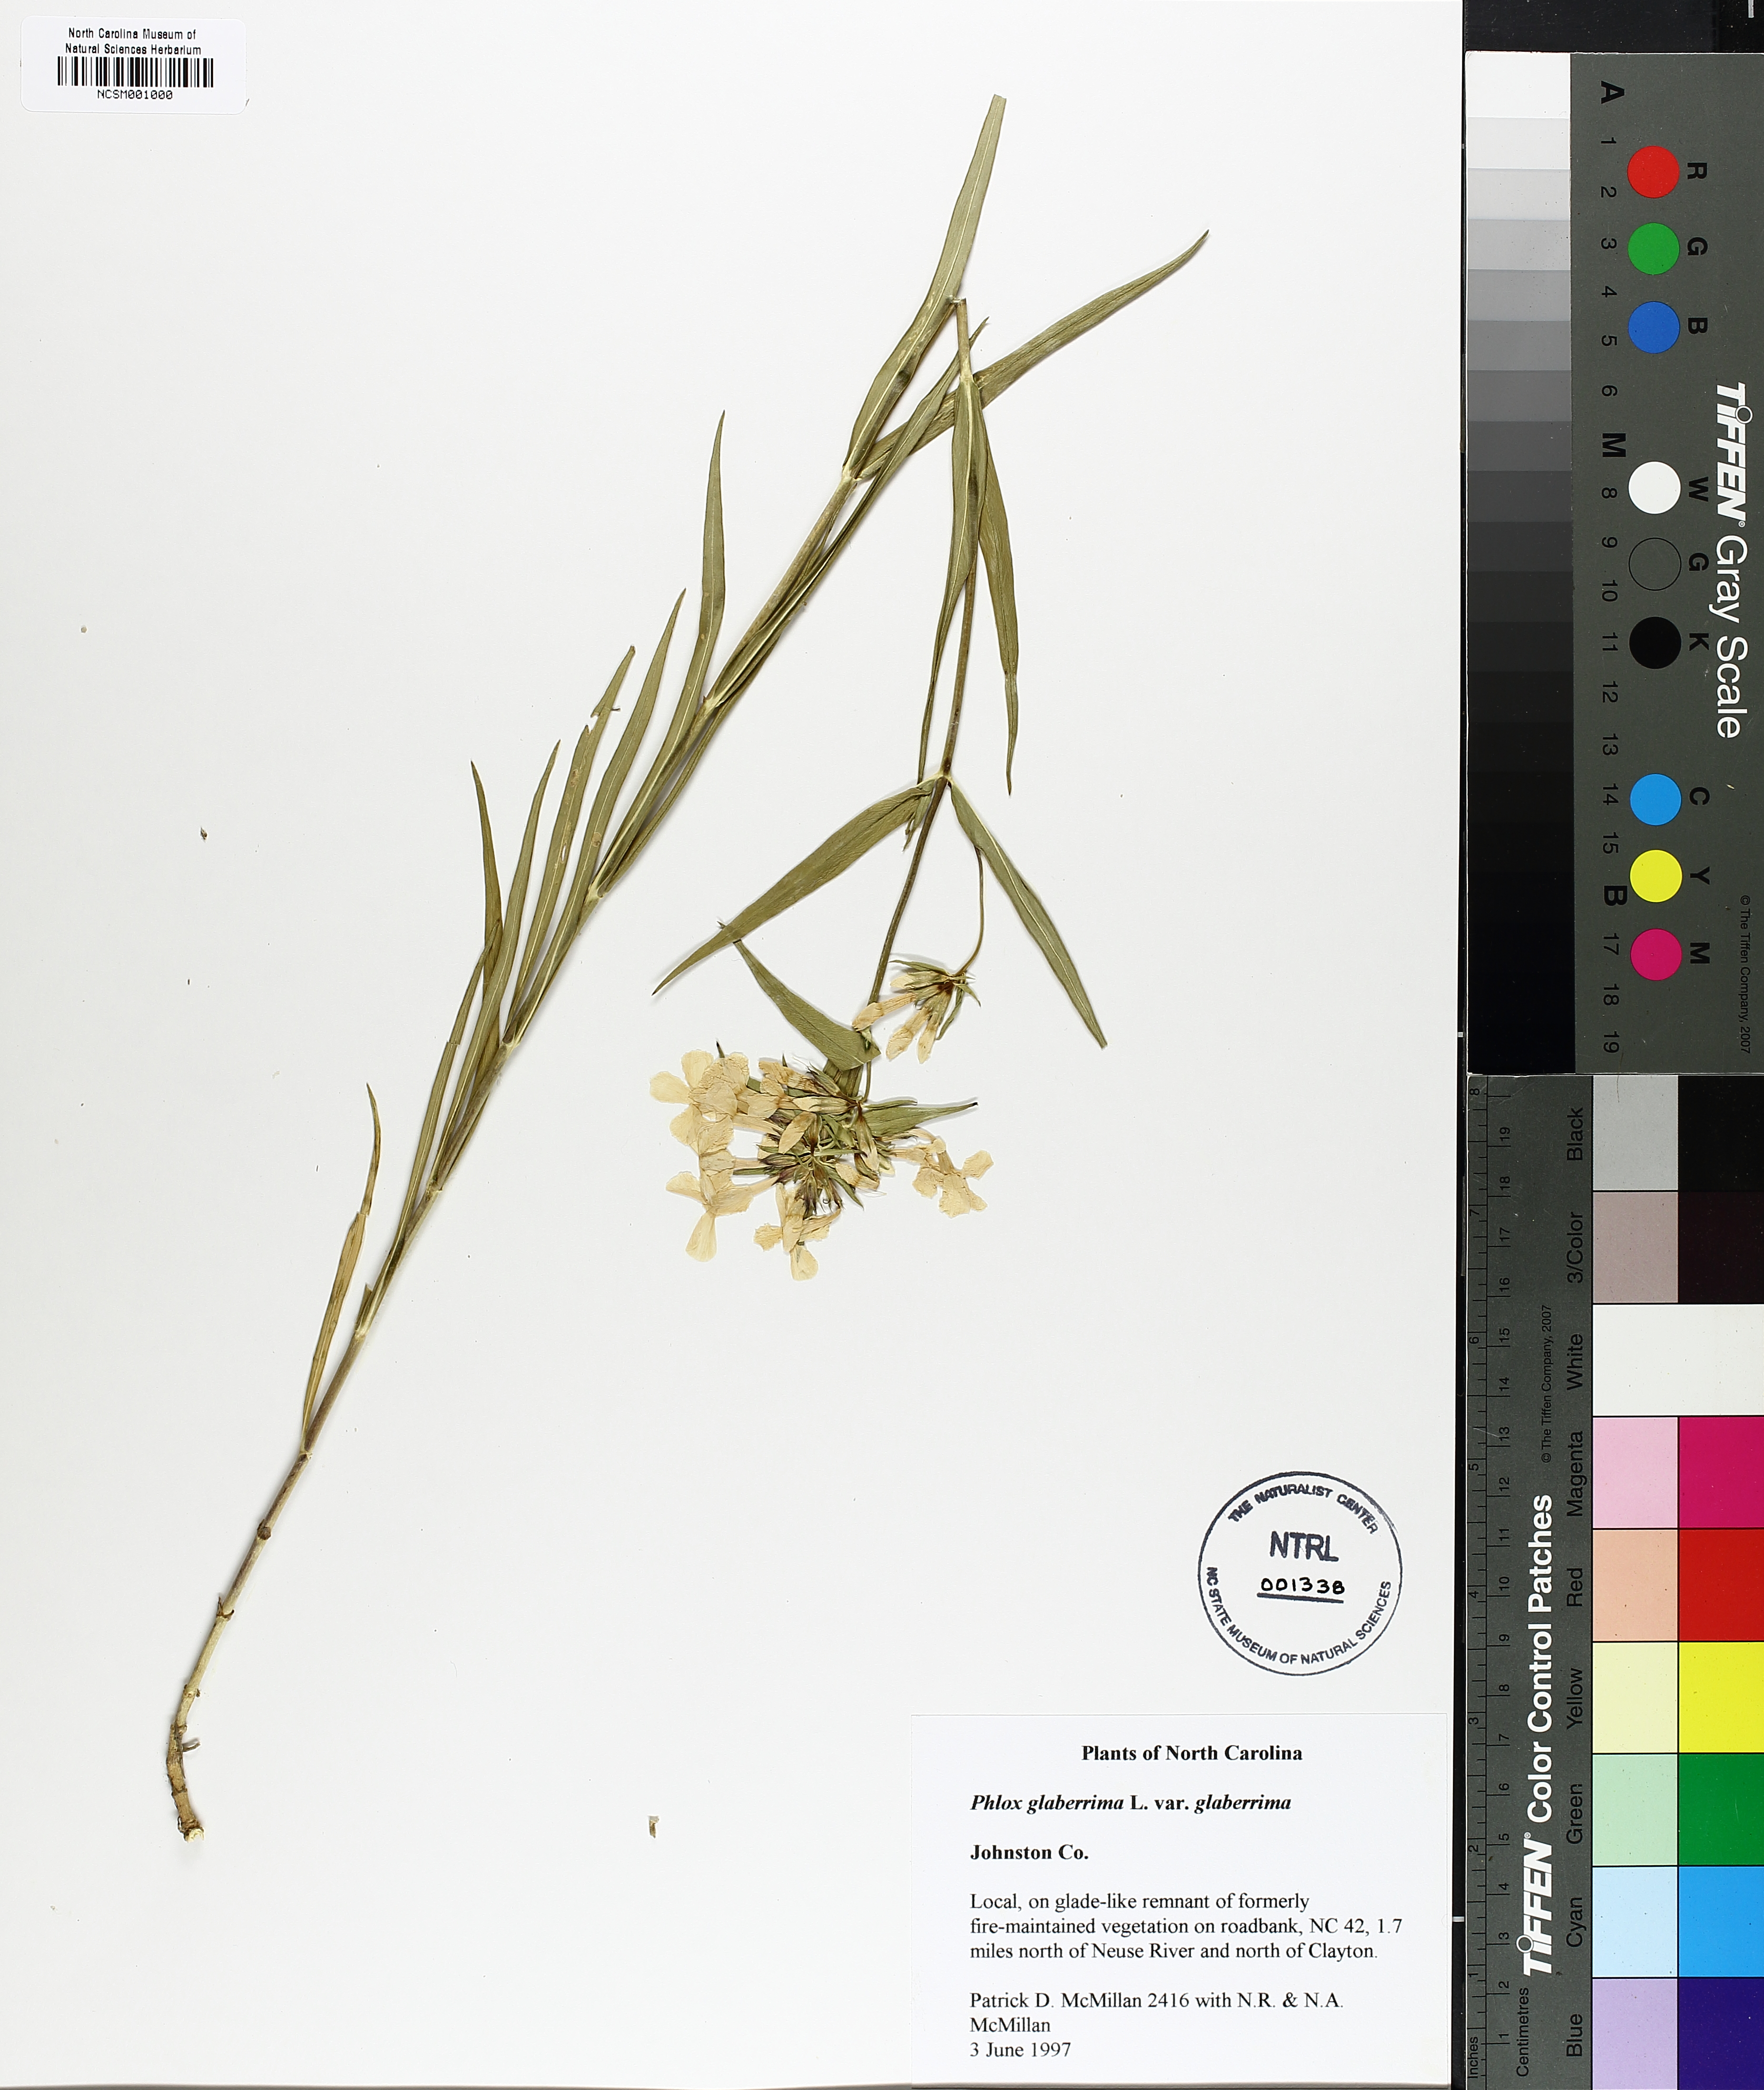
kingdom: Plantae
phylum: Tracheophyta
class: Magnoliopsida
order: Ericales
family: Polemoniaceae
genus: Phlox
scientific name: Phlox glaberrima
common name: Smooth phlox
